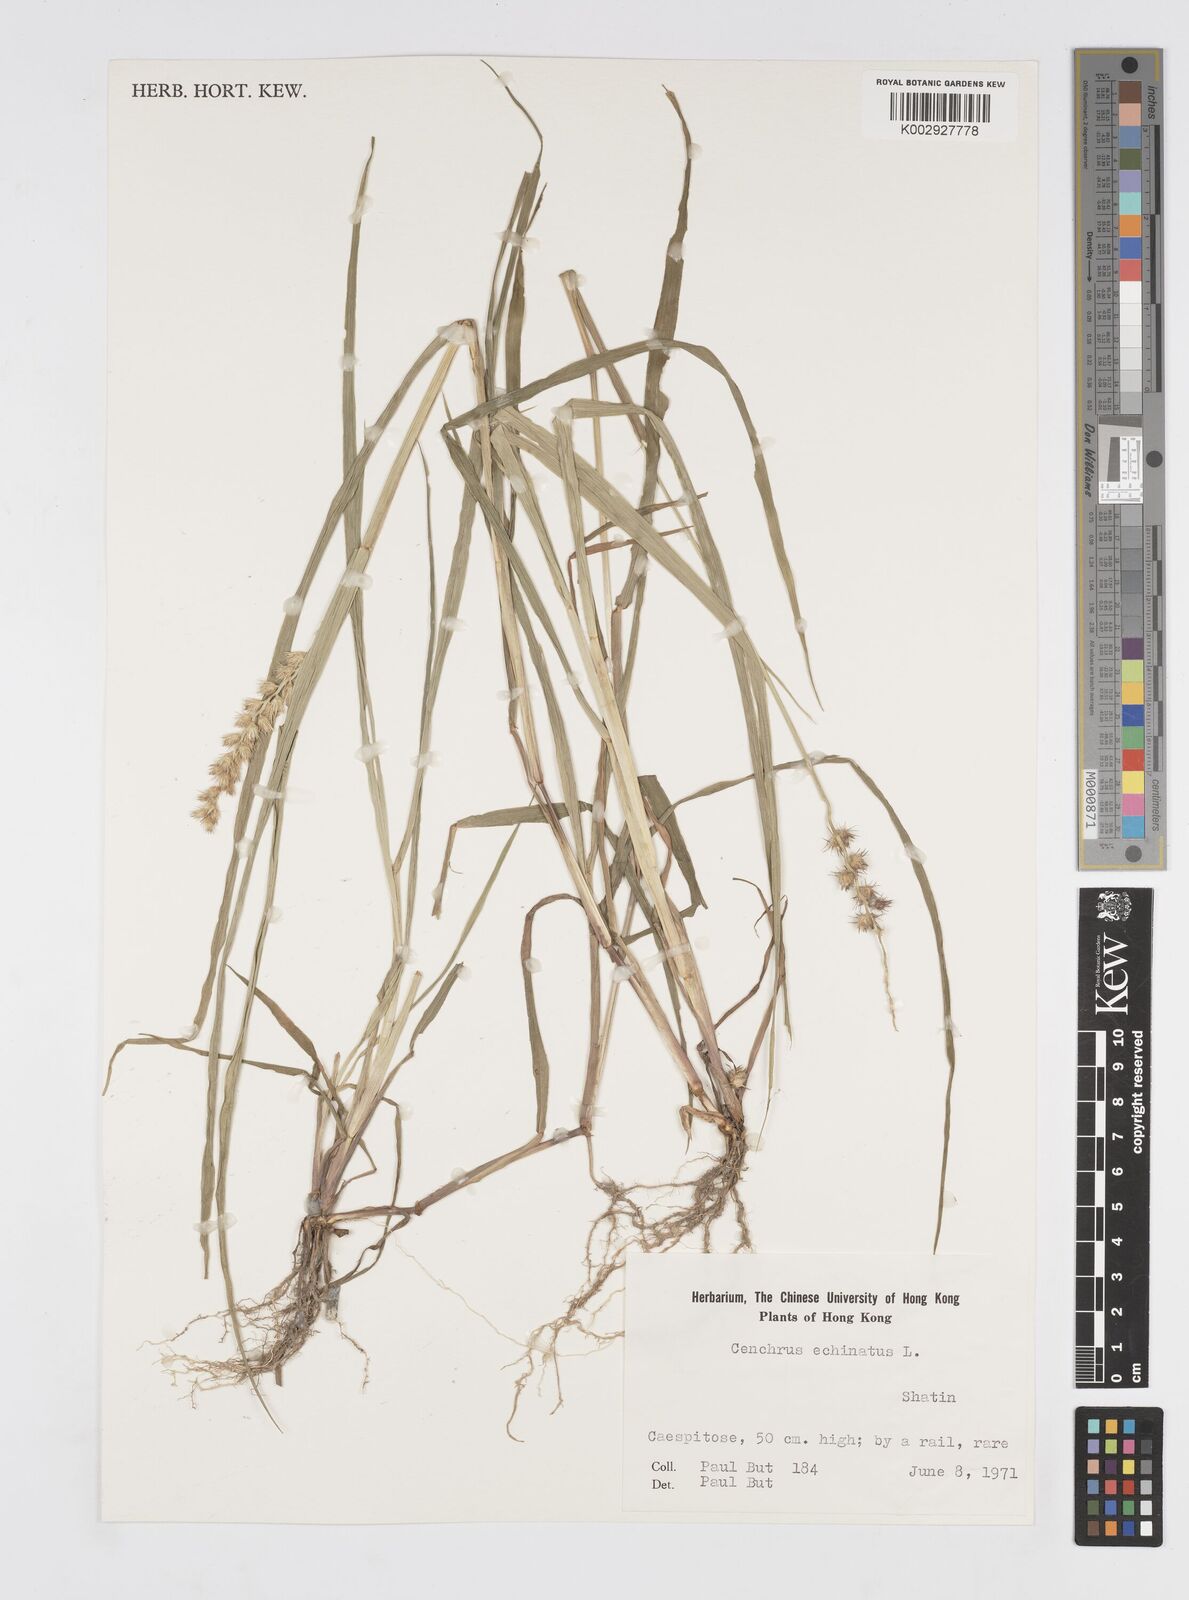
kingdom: Plantae
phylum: Tracheophyta
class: Liliopsida
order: Poales
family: Poaceae
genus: Cenchrus
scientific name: Cenchrus echinatus
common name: Southern sandbur
